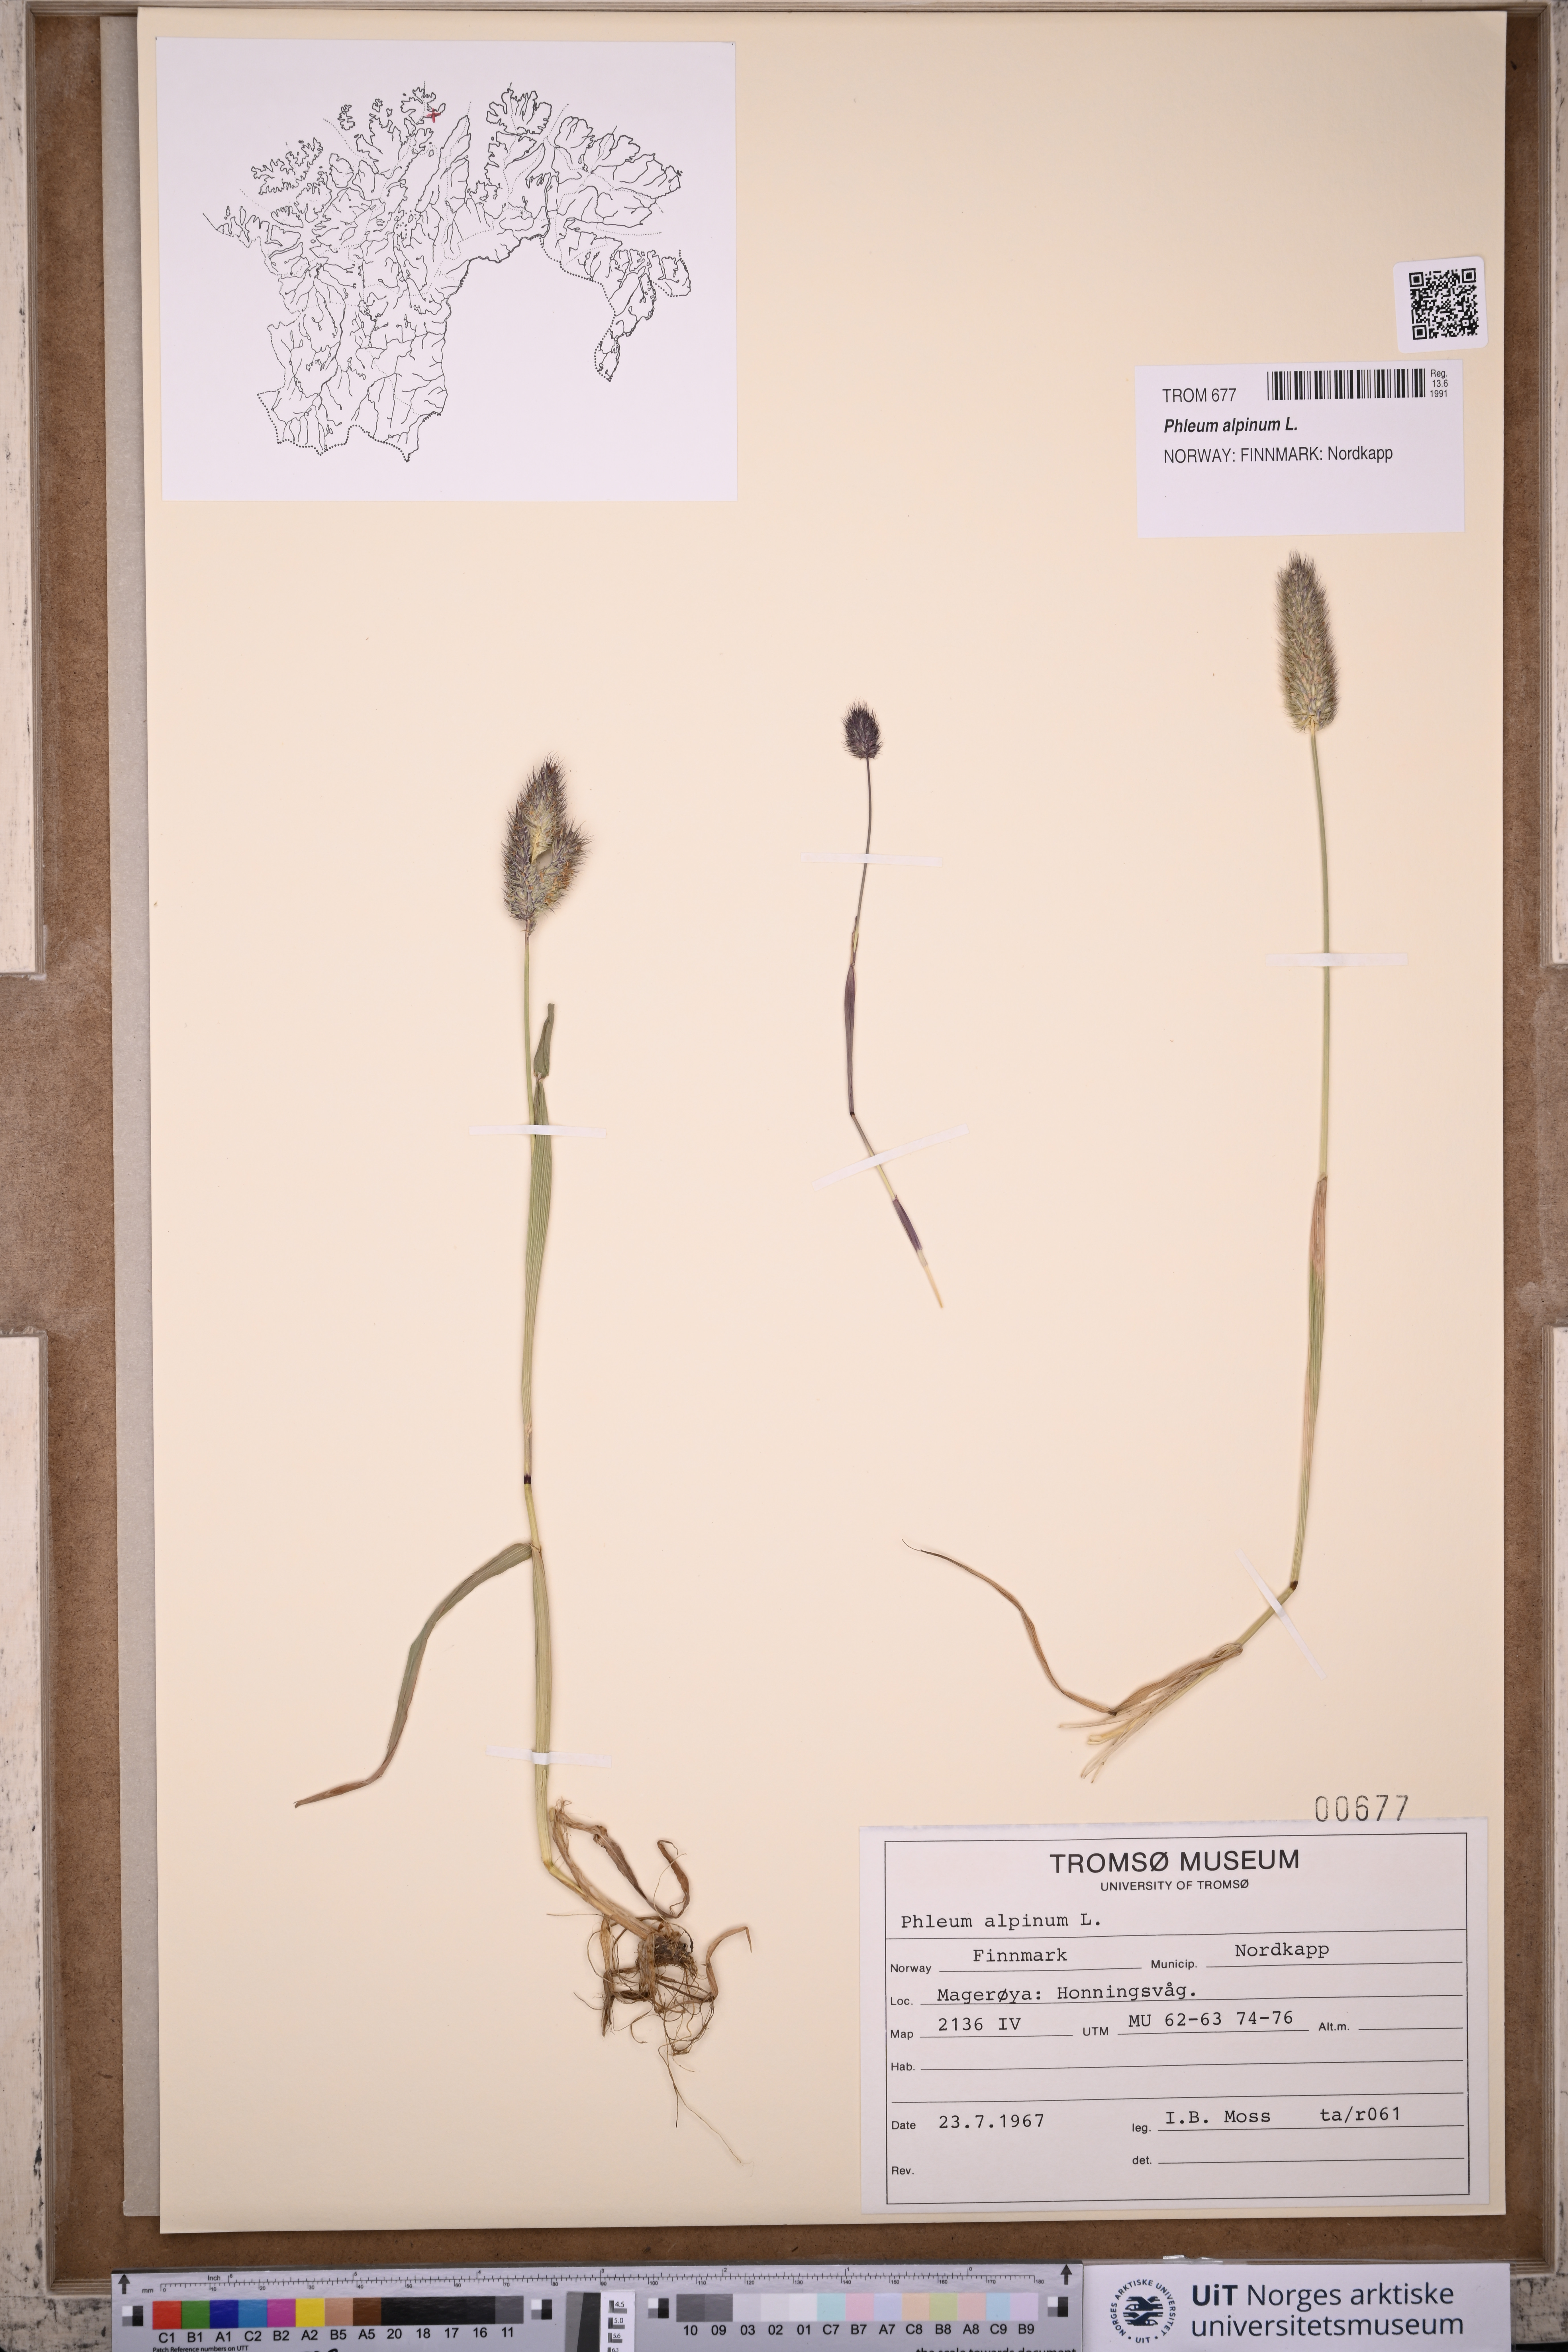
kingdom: Plantae
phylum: Tracheophyta
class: Liliopsida
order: Poales
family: Poaceae
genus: Phleum
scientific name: Phleum alpinum
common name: Alpine cat's-tail
